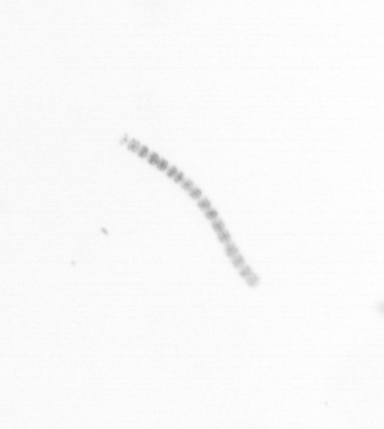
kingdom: Chromista
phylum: Ochrophyta
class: Bacillariophyceae
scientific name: Bacillariophyceae
